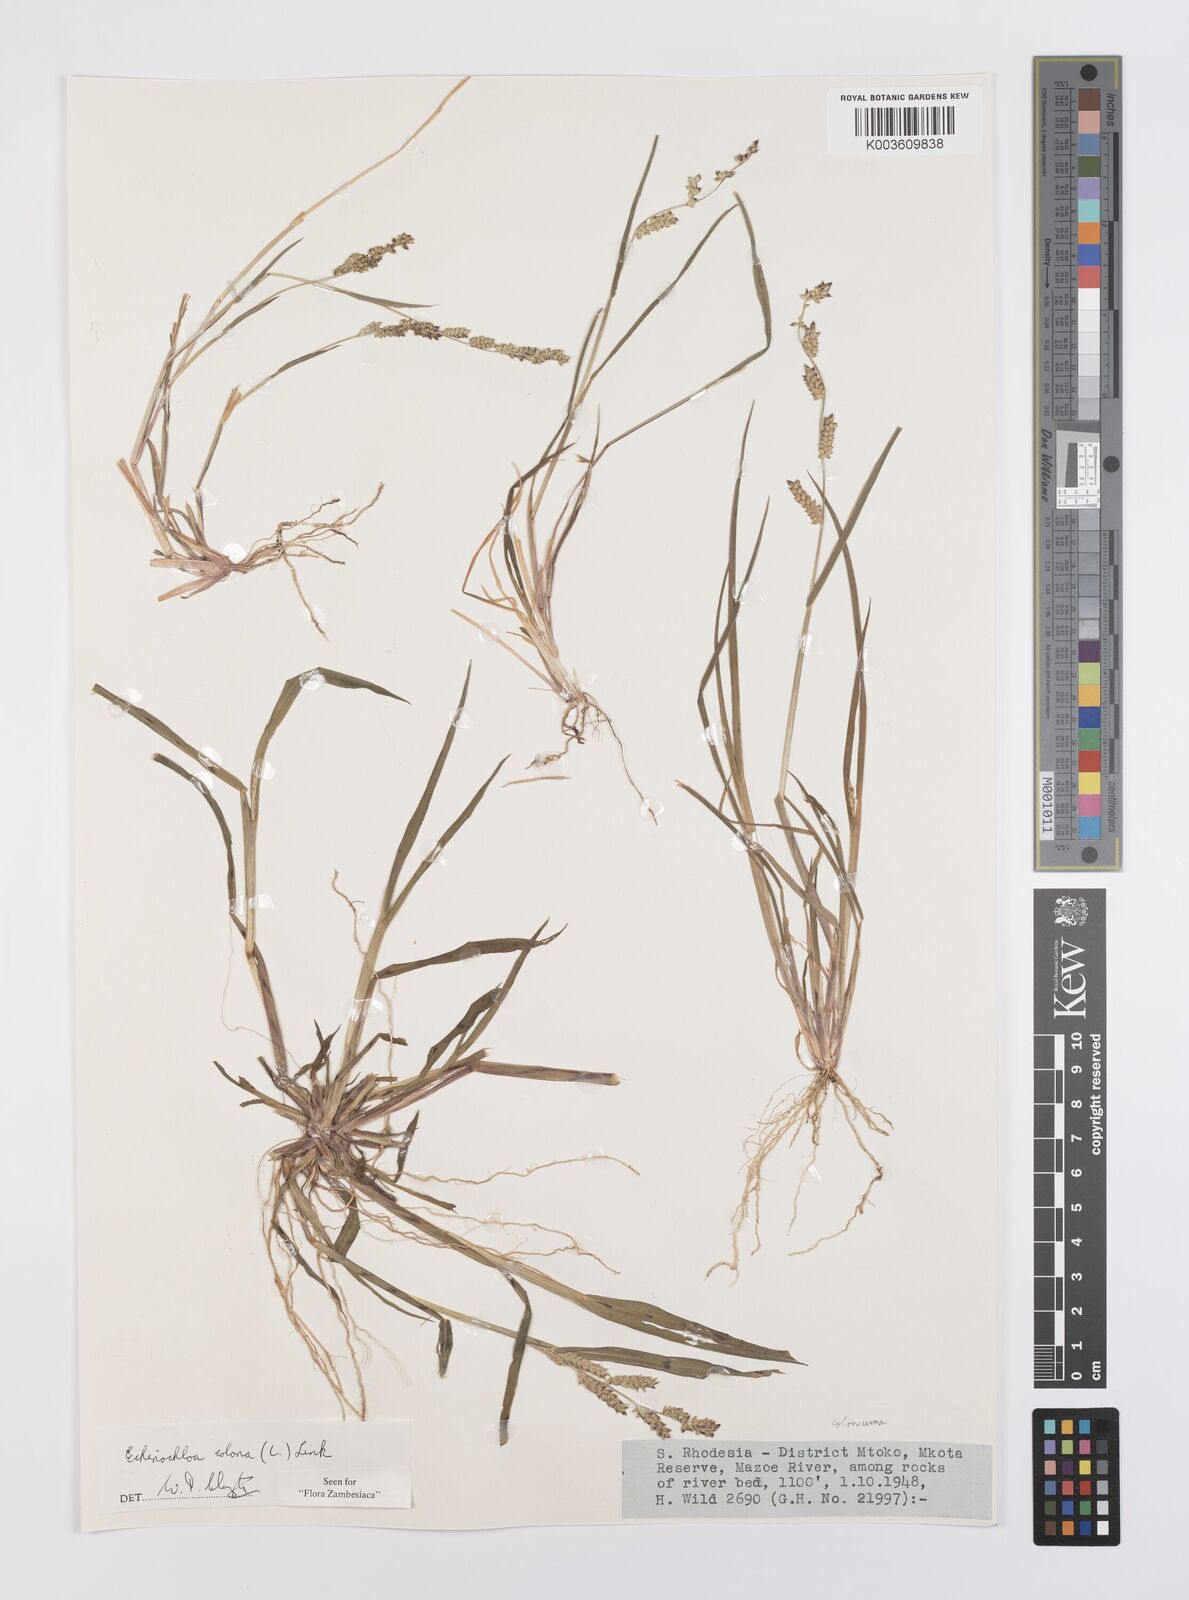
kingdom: Plantae
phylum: Tracheophyta
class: Liliopsida
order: Poales
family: Poaceae
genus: Echinochloa
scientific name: Echinochloa colonum
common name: Jungle rice
